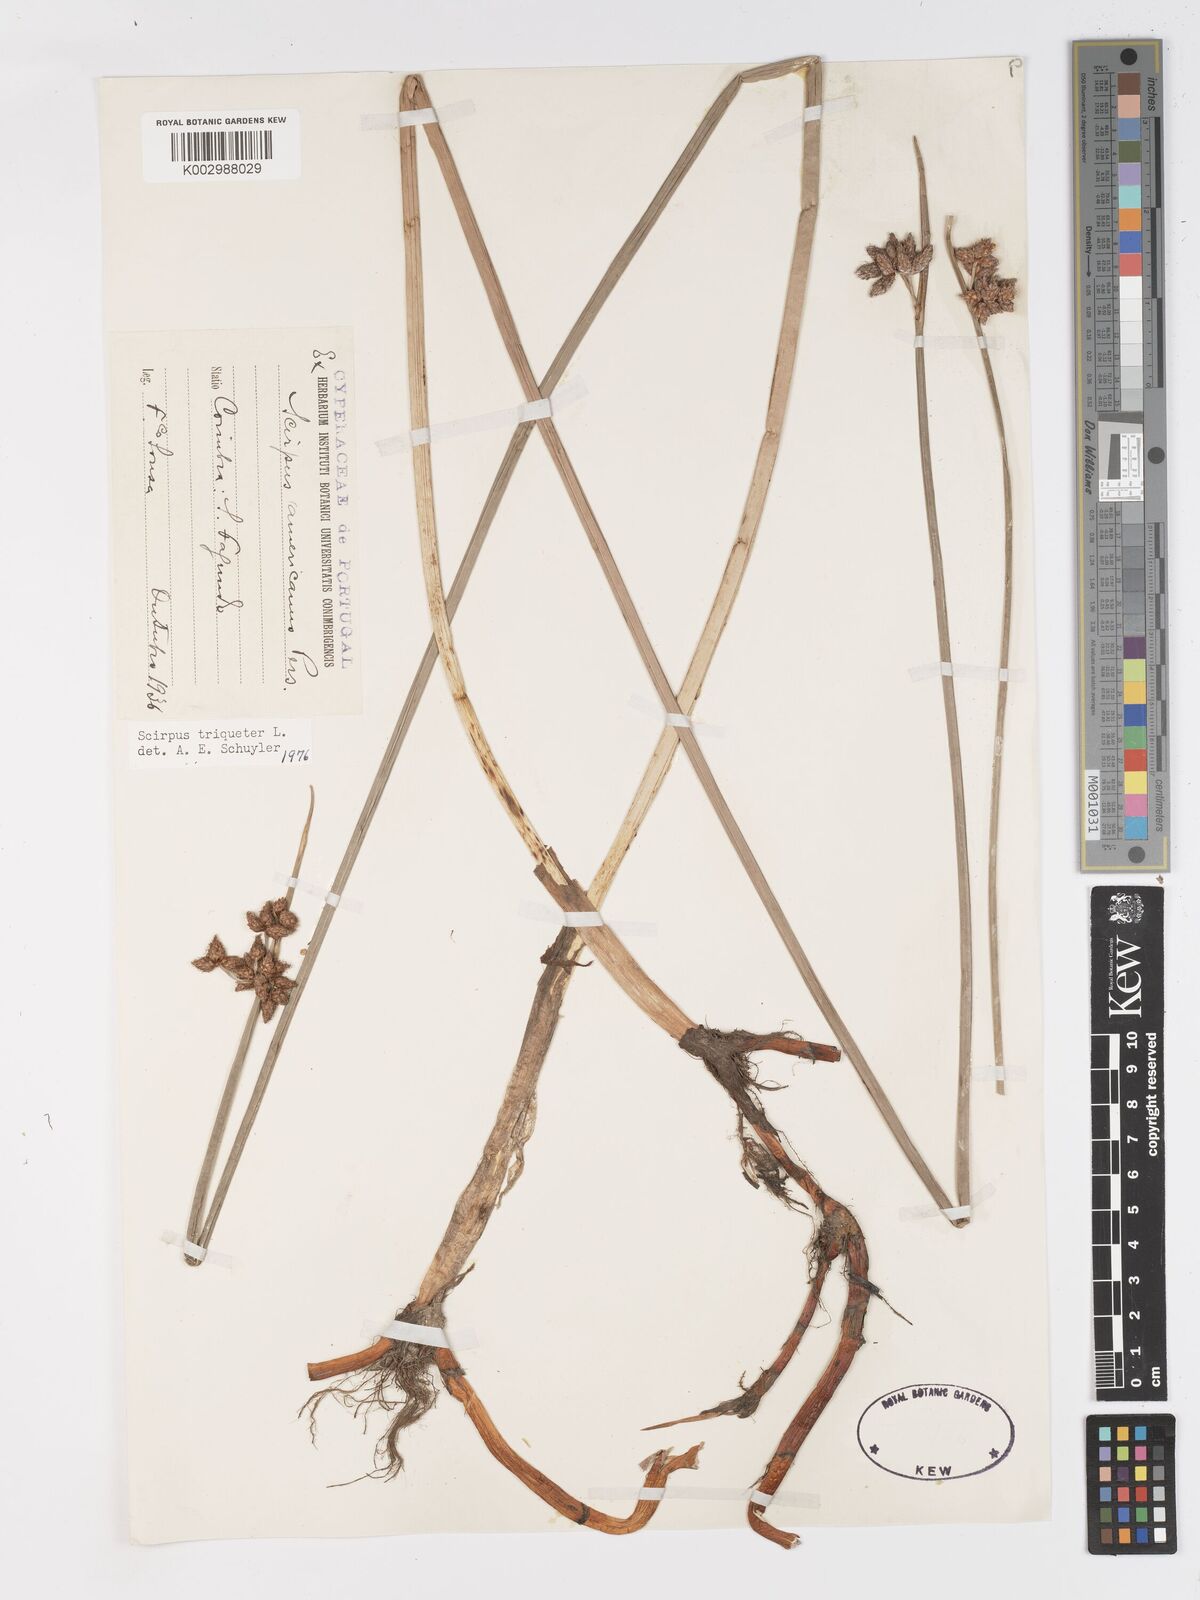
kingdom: Plantae
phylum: Tracheophyta
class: Liliopsida
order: Poales
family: Cyperaceae
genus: Schoenoplectus
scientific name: Schoenoplectus triqueter
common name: Triangular club-rush
